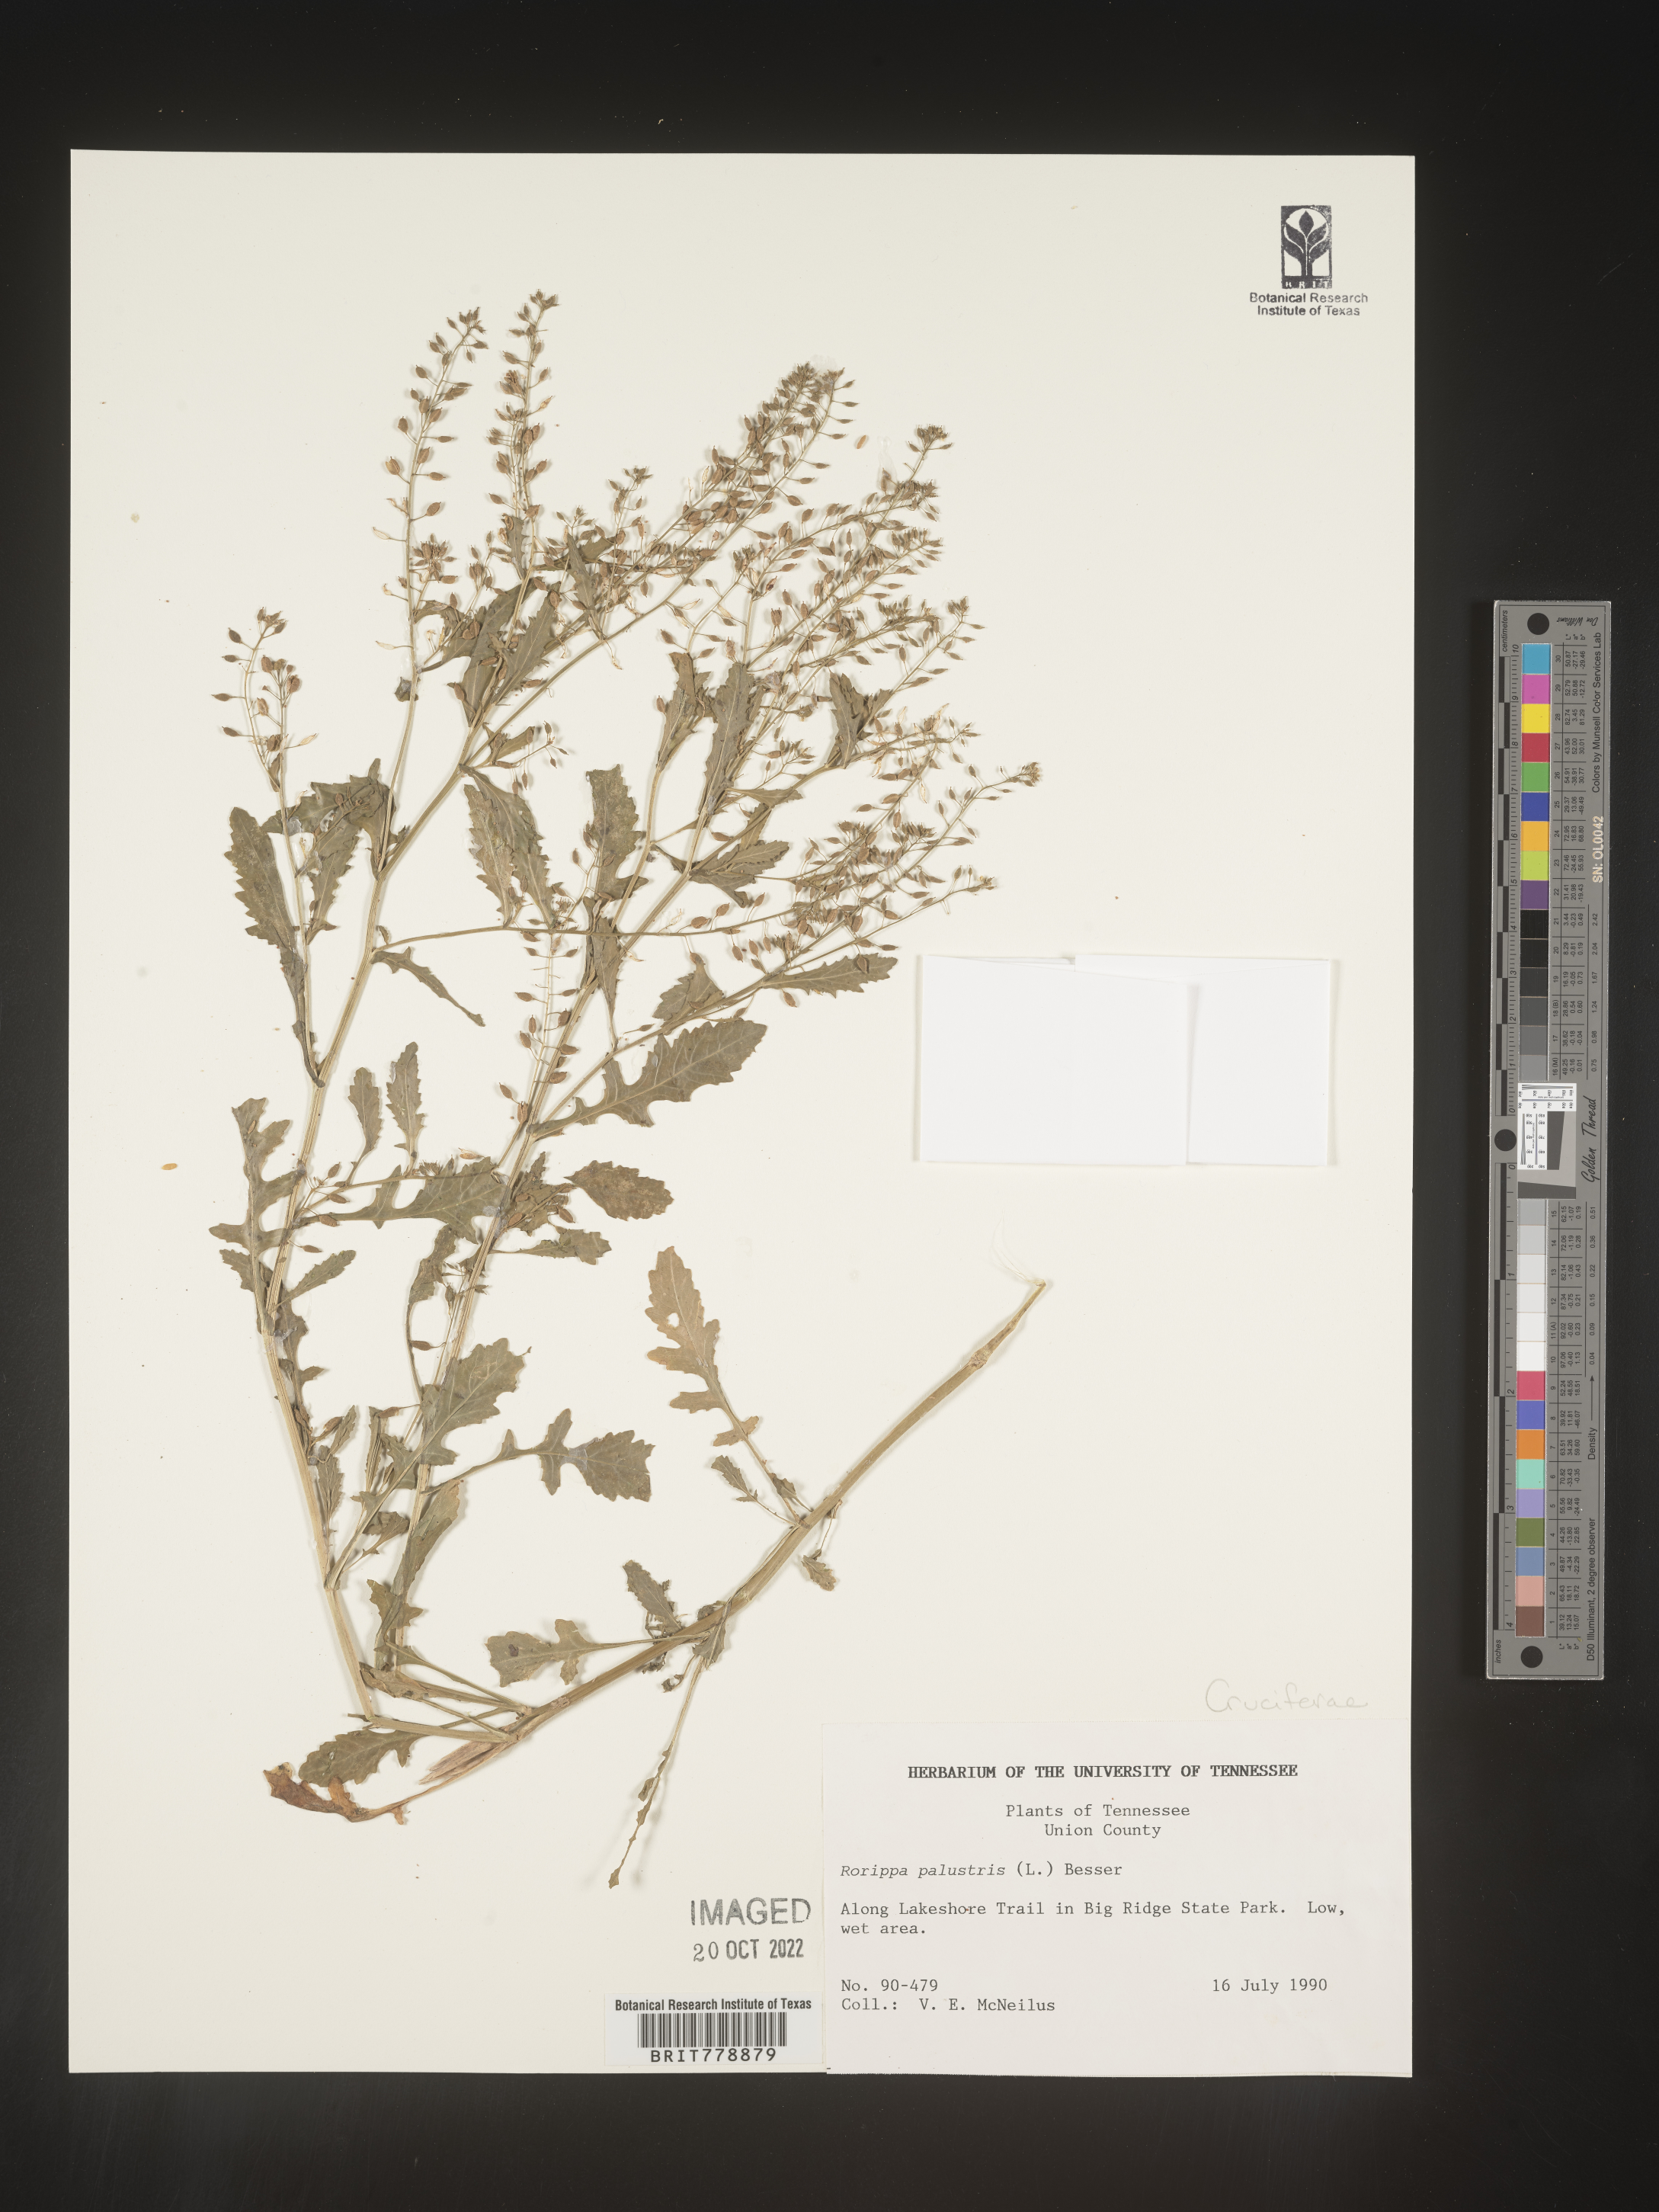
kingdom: Plantae
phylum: Tracheophyta
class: Magnoliopsida
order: Brassicales
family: Brassicaceae
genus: Rorippa
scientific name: Rorippa palustris
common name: Marsh yellow-cress
